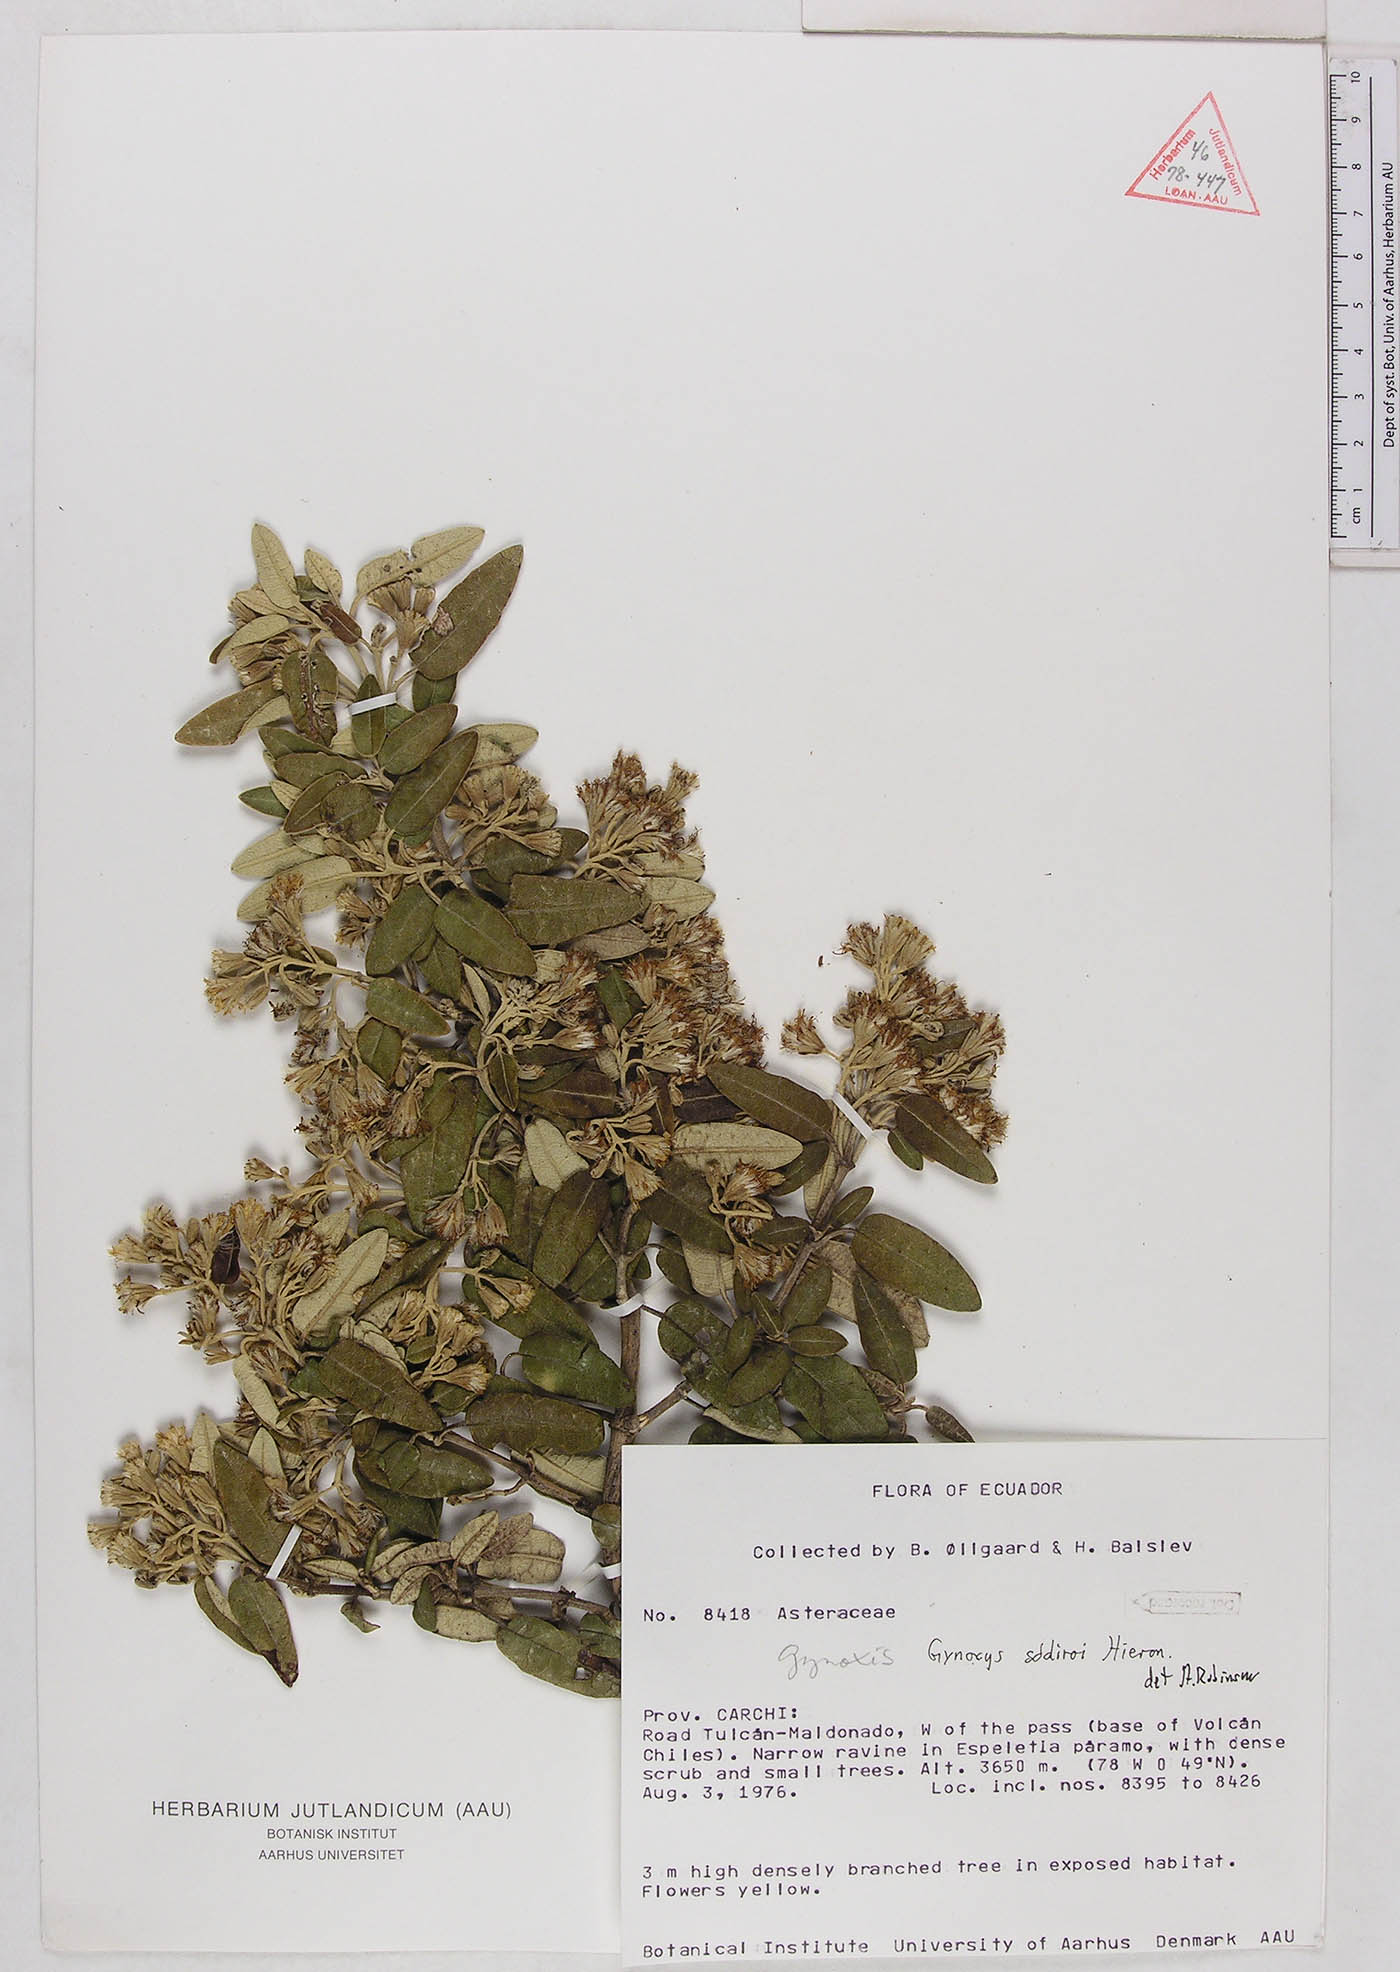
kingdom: Plantae
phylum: Tracheophyta
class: Magnoliopsida
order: Asterales
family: Asteraceae
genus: Gynoxys
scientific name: Gynoxys sodiroi
